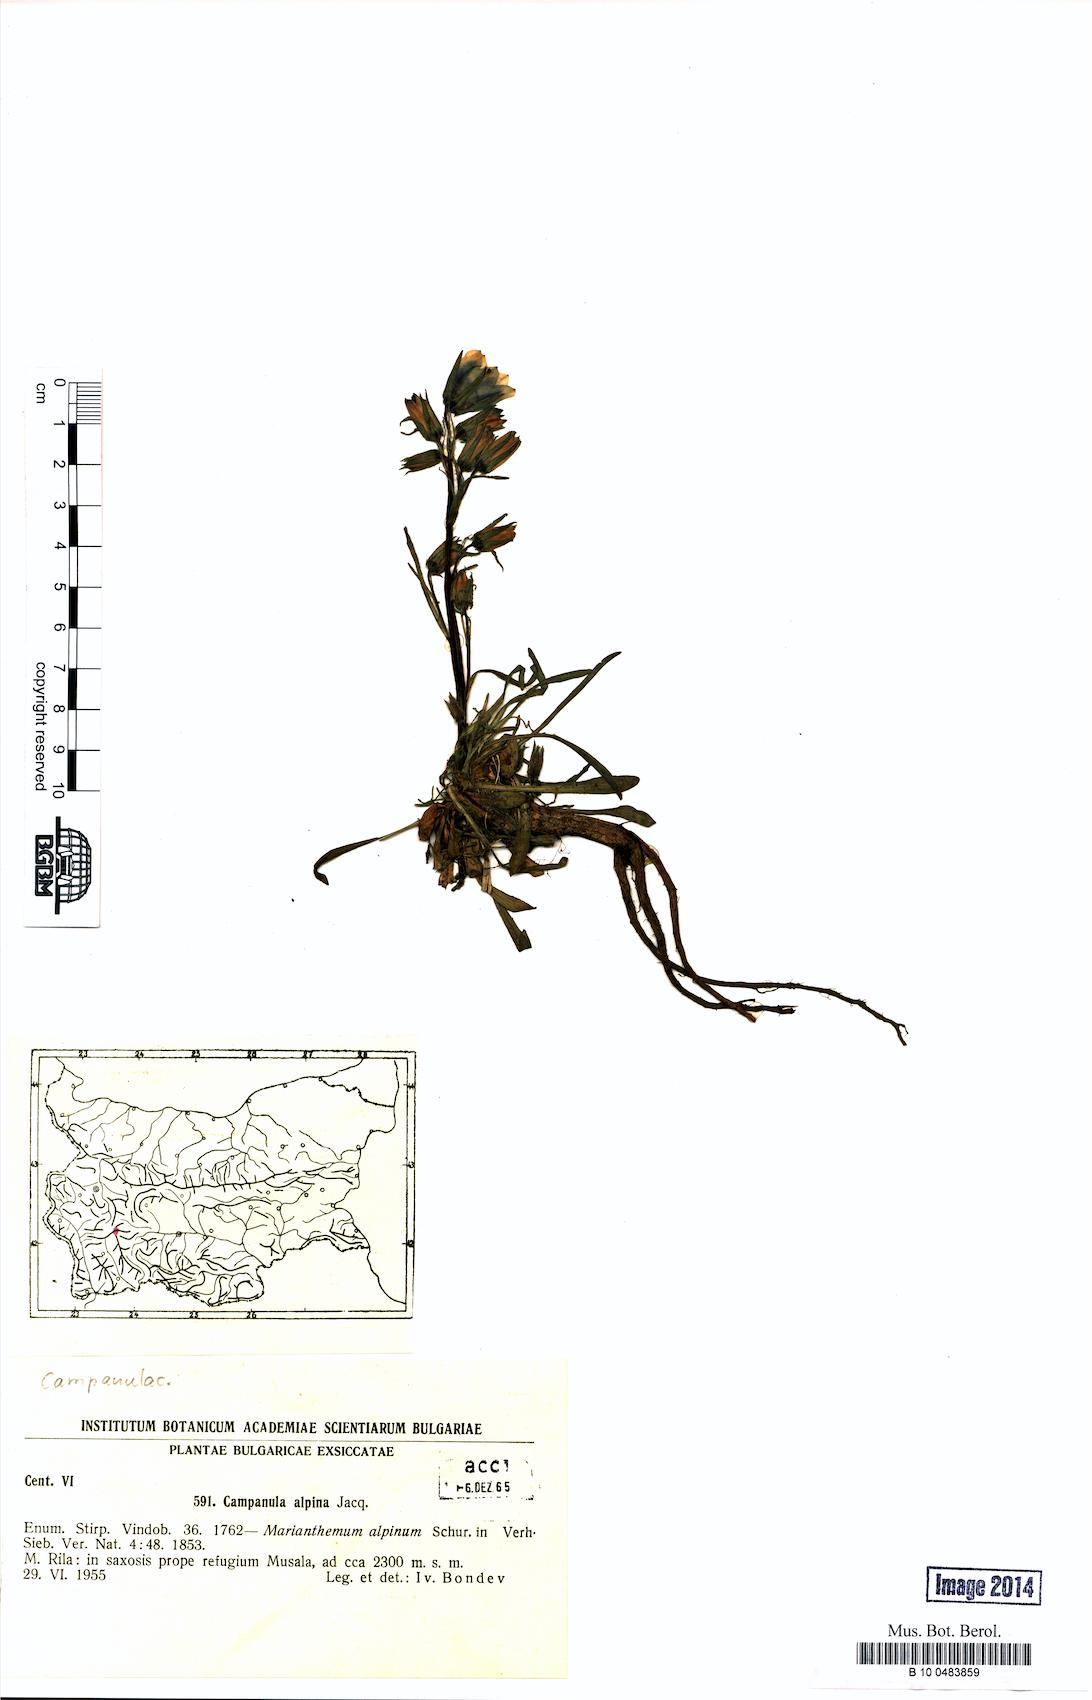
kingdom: Plantae
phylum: Tracheophyta
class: Magnoliopsida
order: Asterales
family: Campanulaceae
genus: Campanula
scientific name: Campanula alpina
